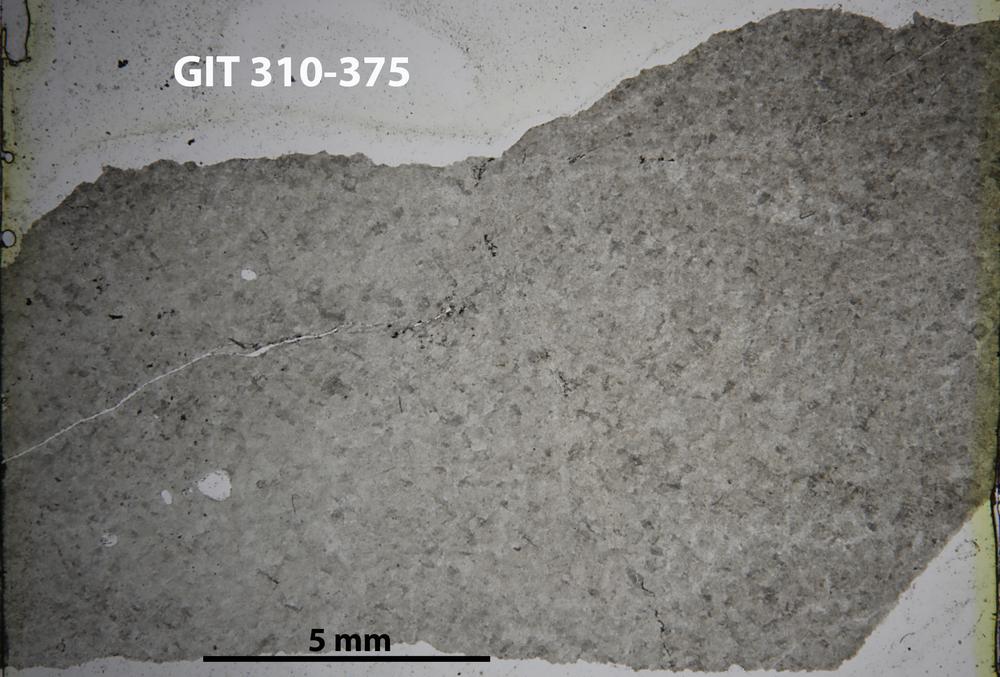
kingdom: Animalia
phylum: Porifera
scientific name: Porifera
